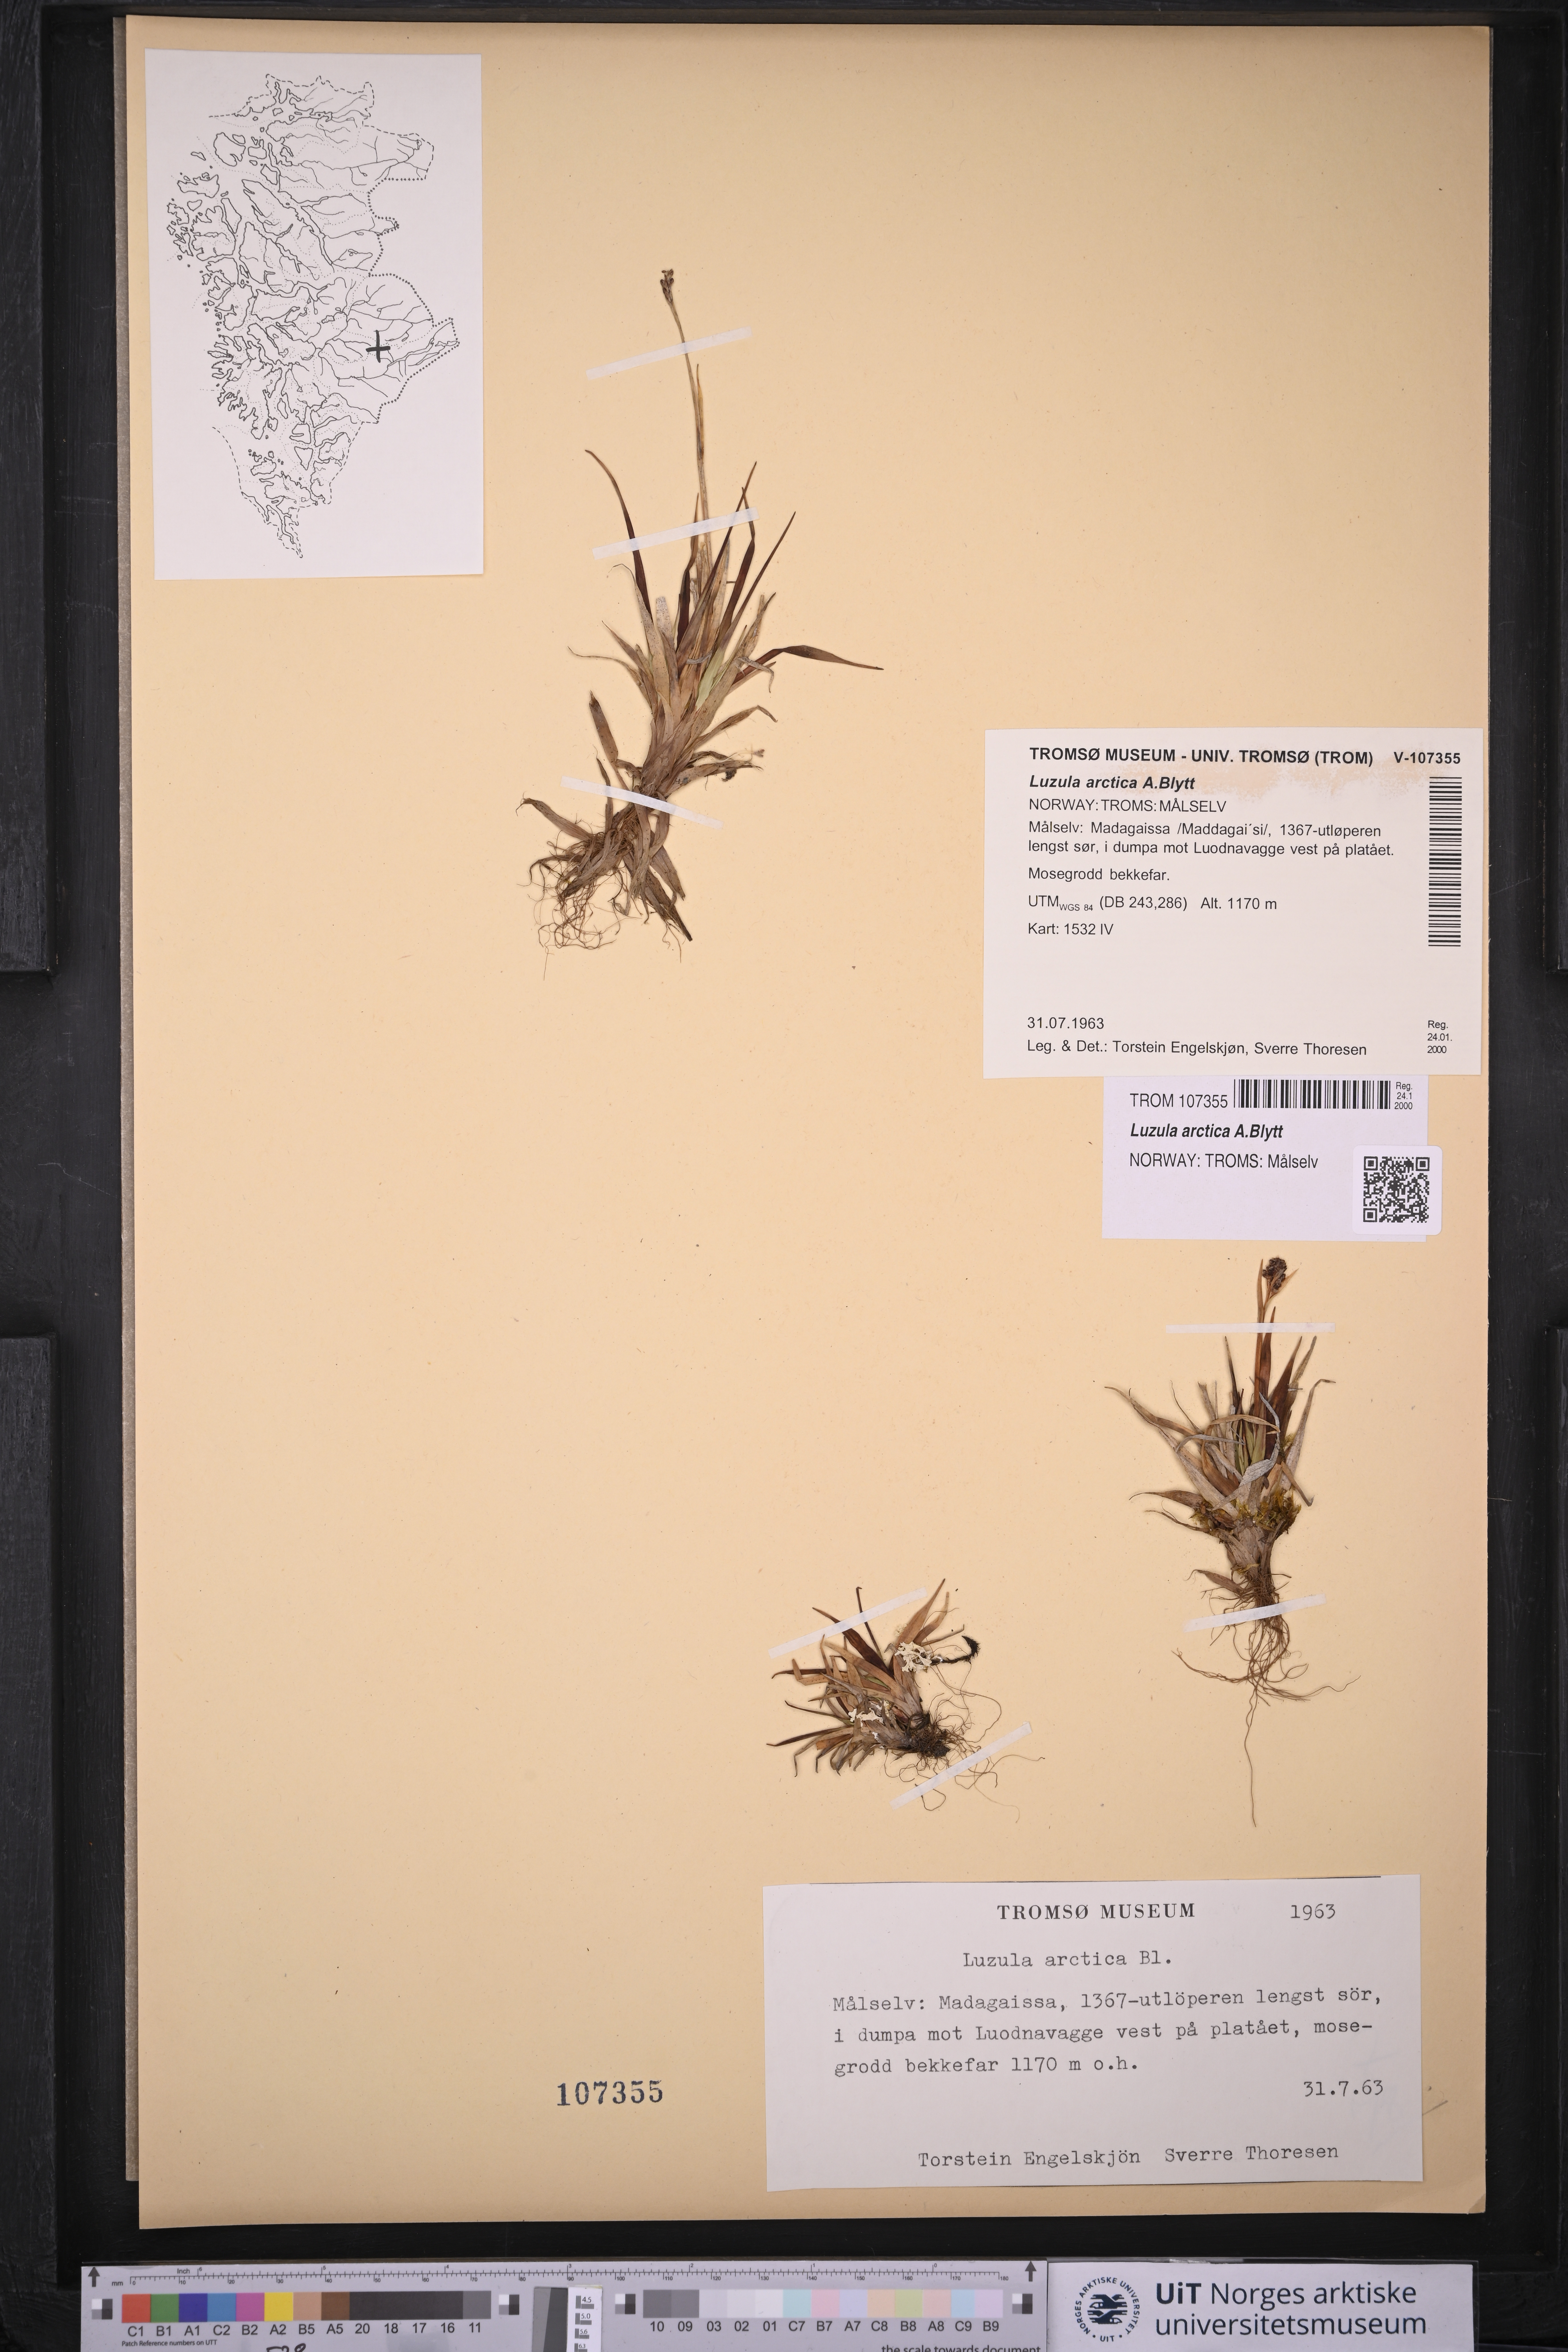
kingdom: Plantae
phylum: Tracheophyta
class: Liliopsida
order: Poales
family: Juncaceae
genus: Luzula
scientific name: Luzula nivalis
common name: Arctic woodrush
